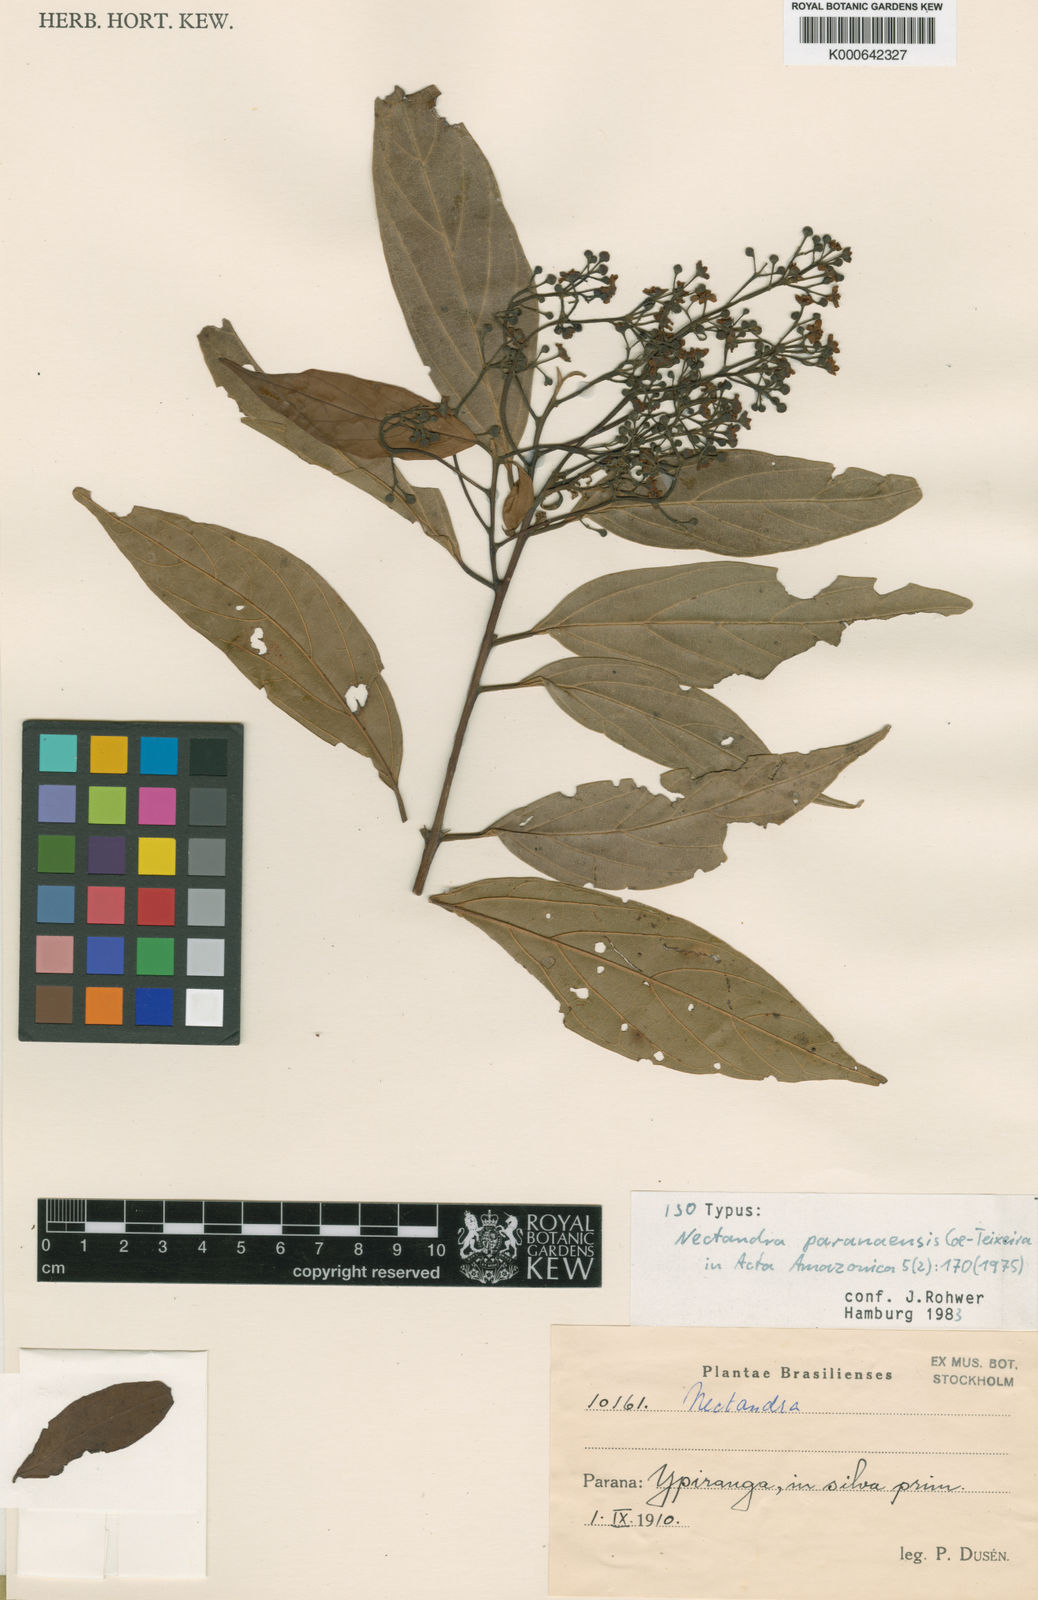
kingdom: Plantae
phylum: Tracheophyta
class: Magnoliopsida
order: Laurales
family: Lauraceae
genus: Nectandra
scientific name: Nectandra paranaensis
